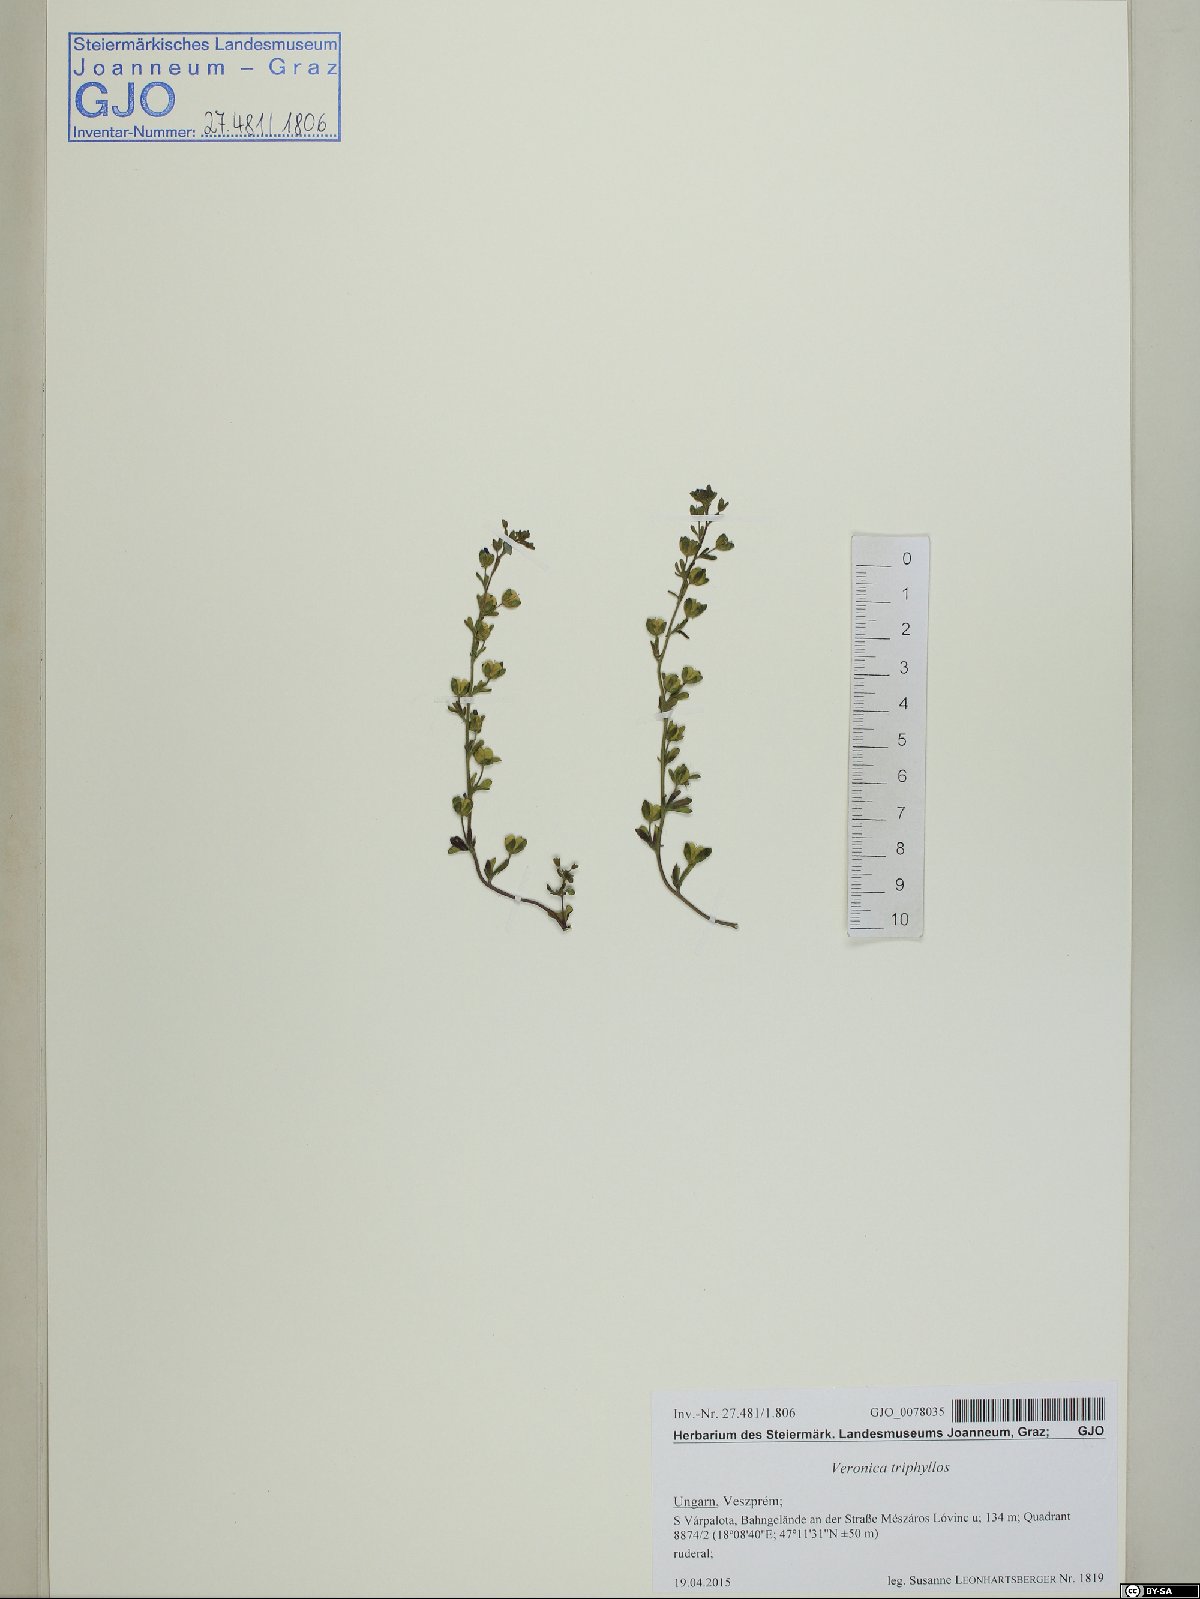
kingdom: Plantae
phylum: Tracheophyta
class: Magnoliopsida
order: Lamiales
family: Plantaginaceae
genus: Veronica
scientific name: Veronica triphyllos
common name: Fingered speedwell
